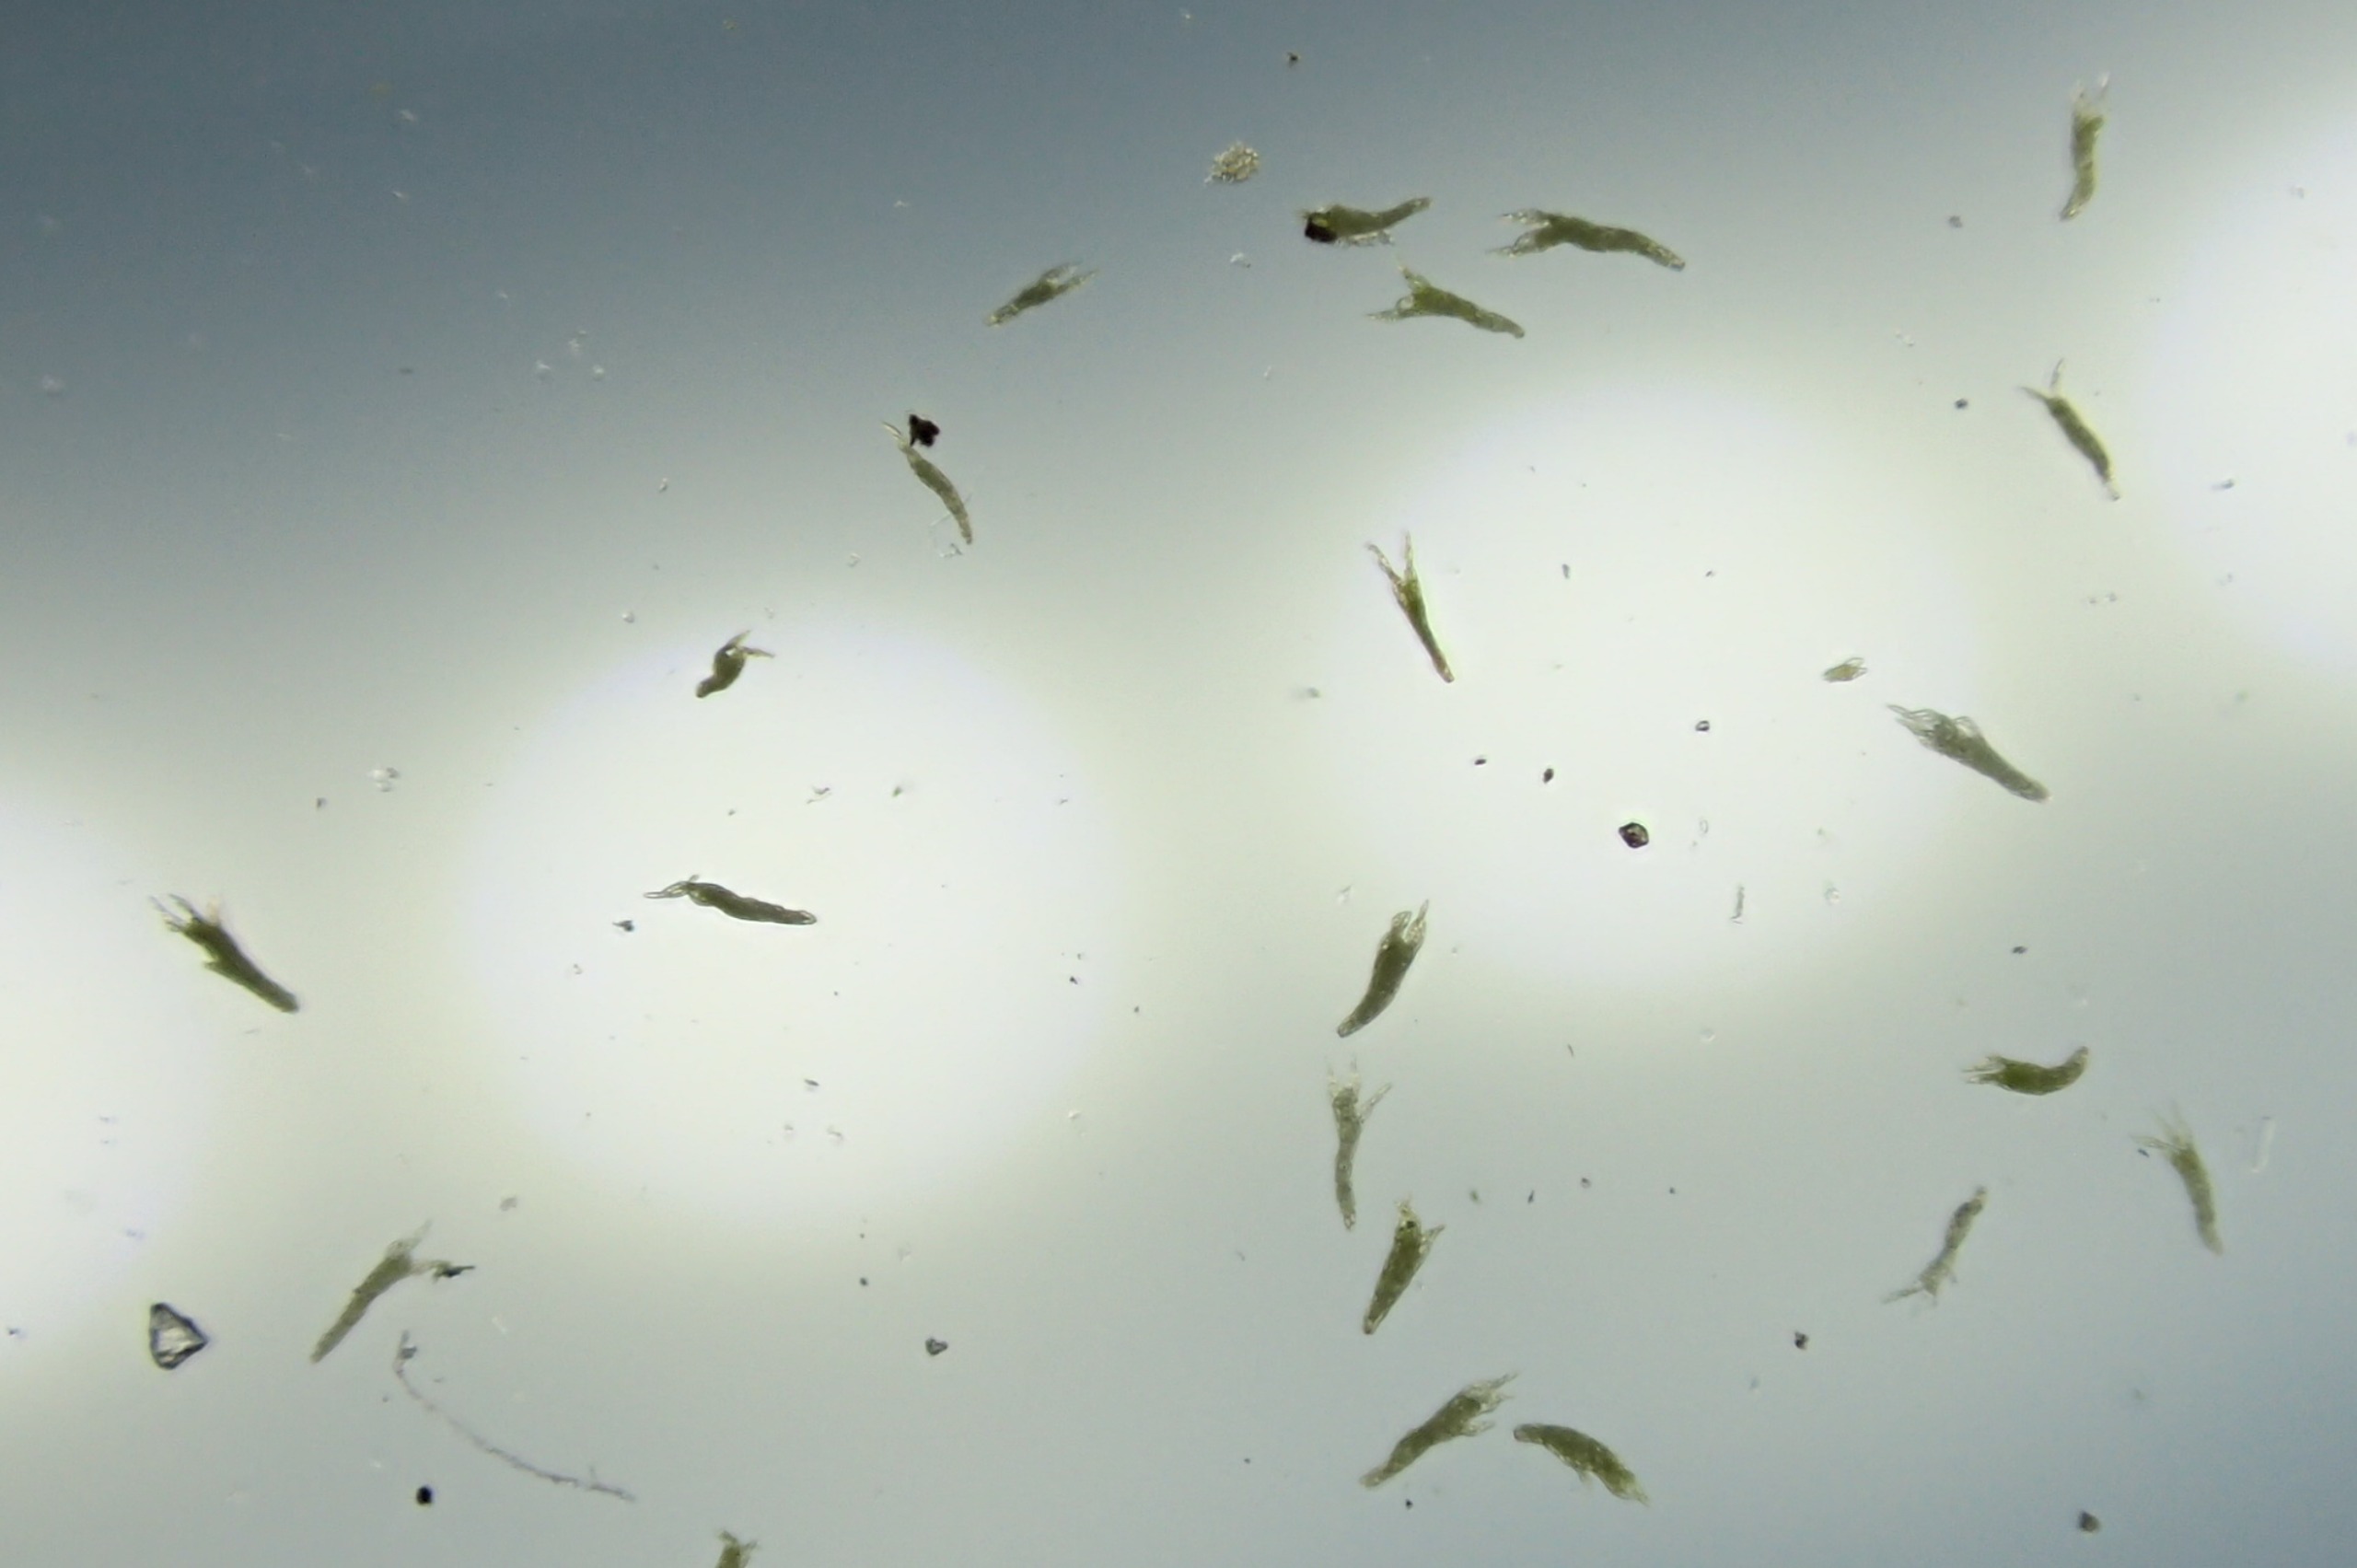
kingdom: Plantae
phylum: Bryophyta
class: Bryopsida
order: Bryales
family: Mniaceae
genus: Pohlia
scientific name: Pohlia annotina
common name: Blød nikkemos
